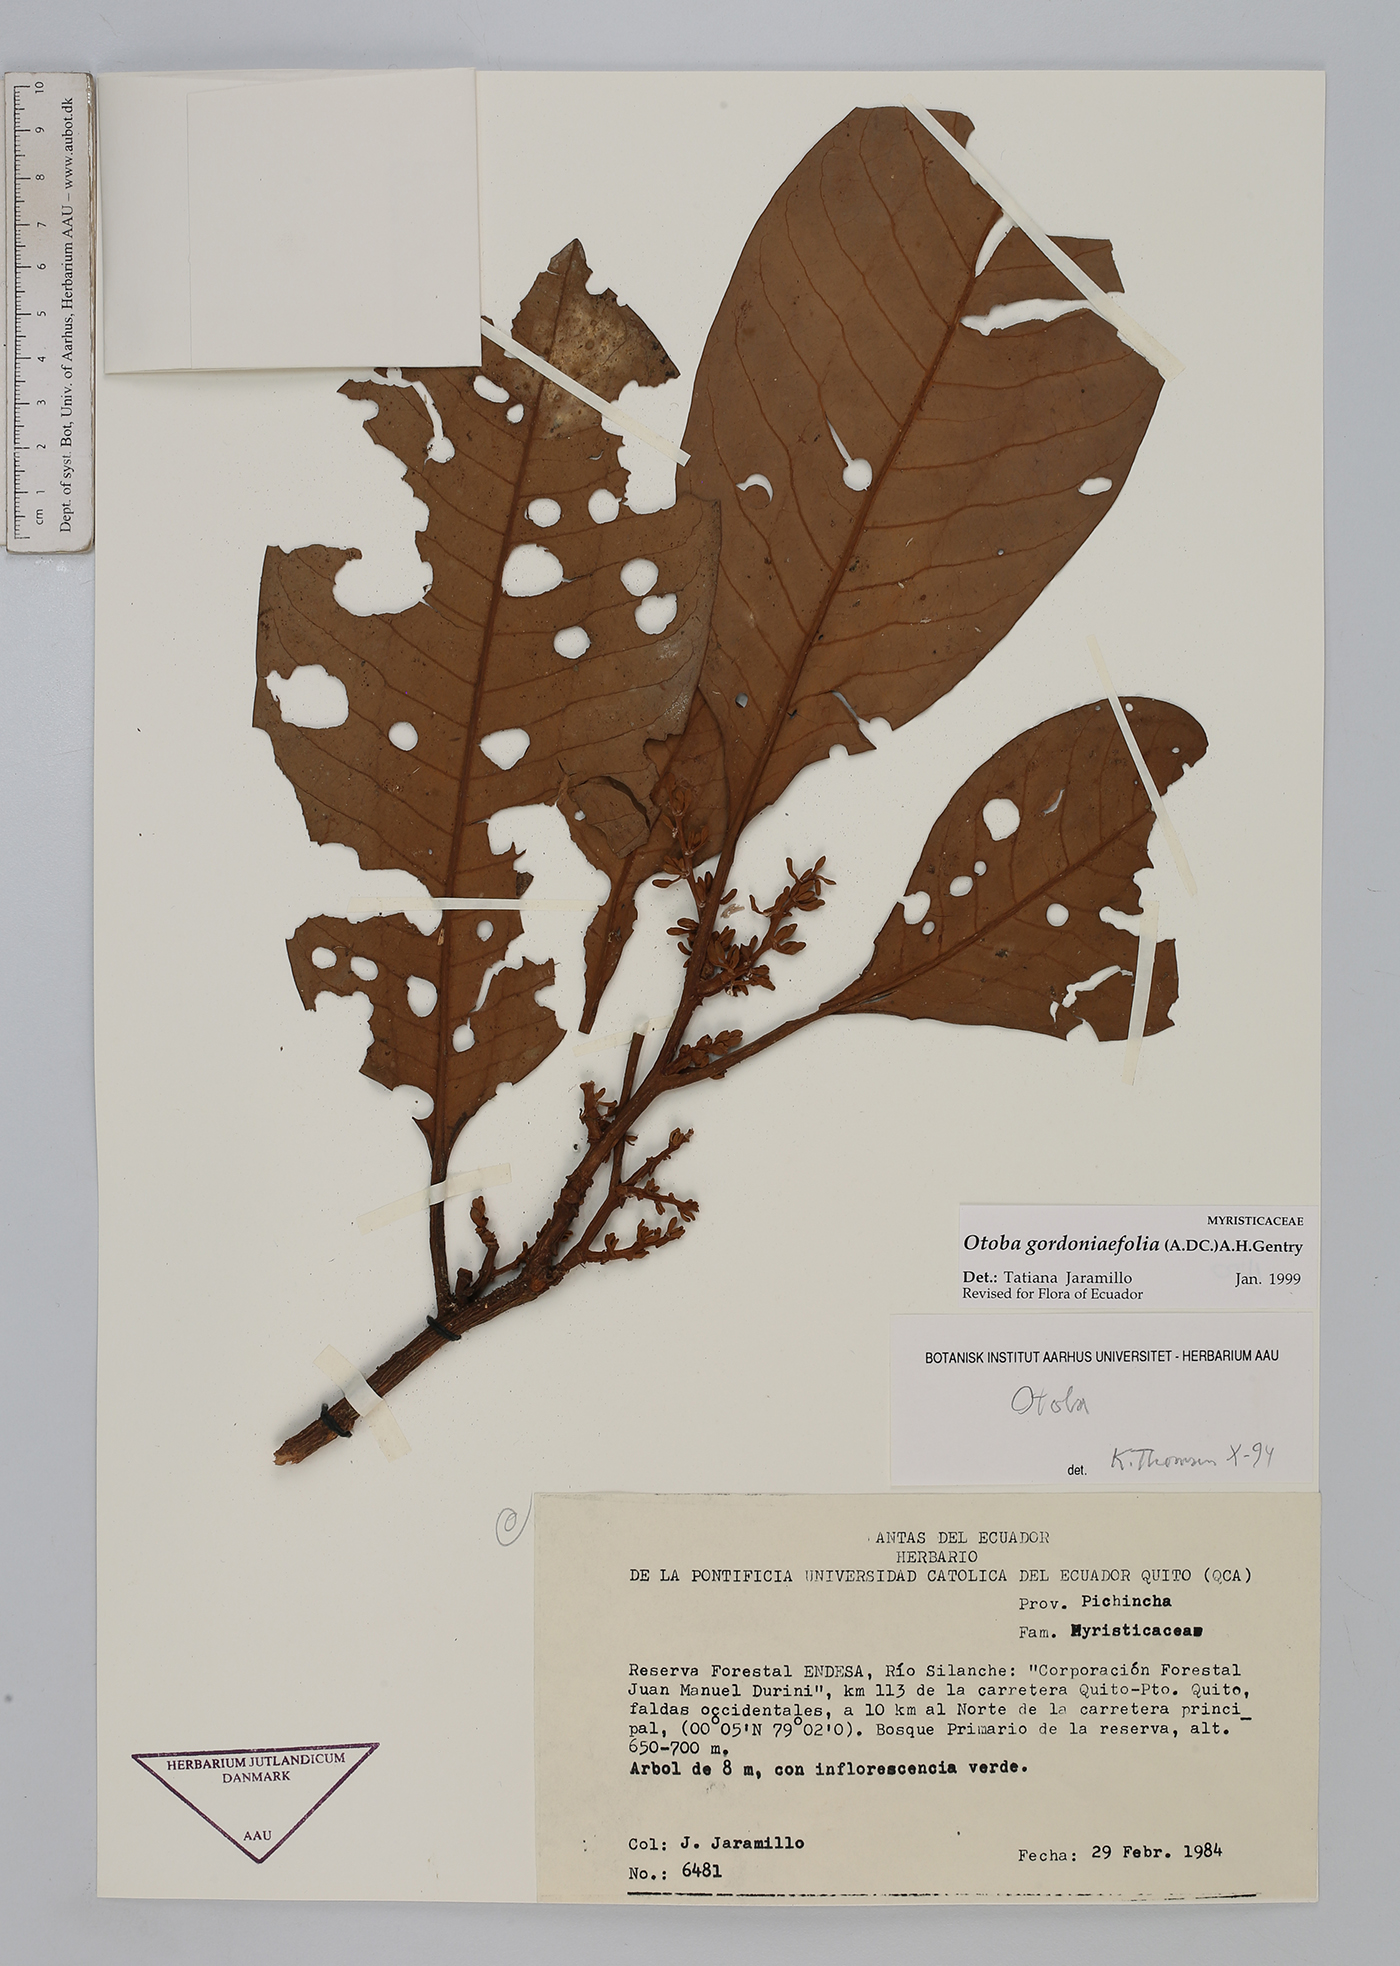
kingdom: Plantae
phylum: Tracheophyta
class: Magnoliopsida
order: Magnoliales
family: Myristicaceae
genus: Otoba
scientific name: Otoba gordoniifolia
